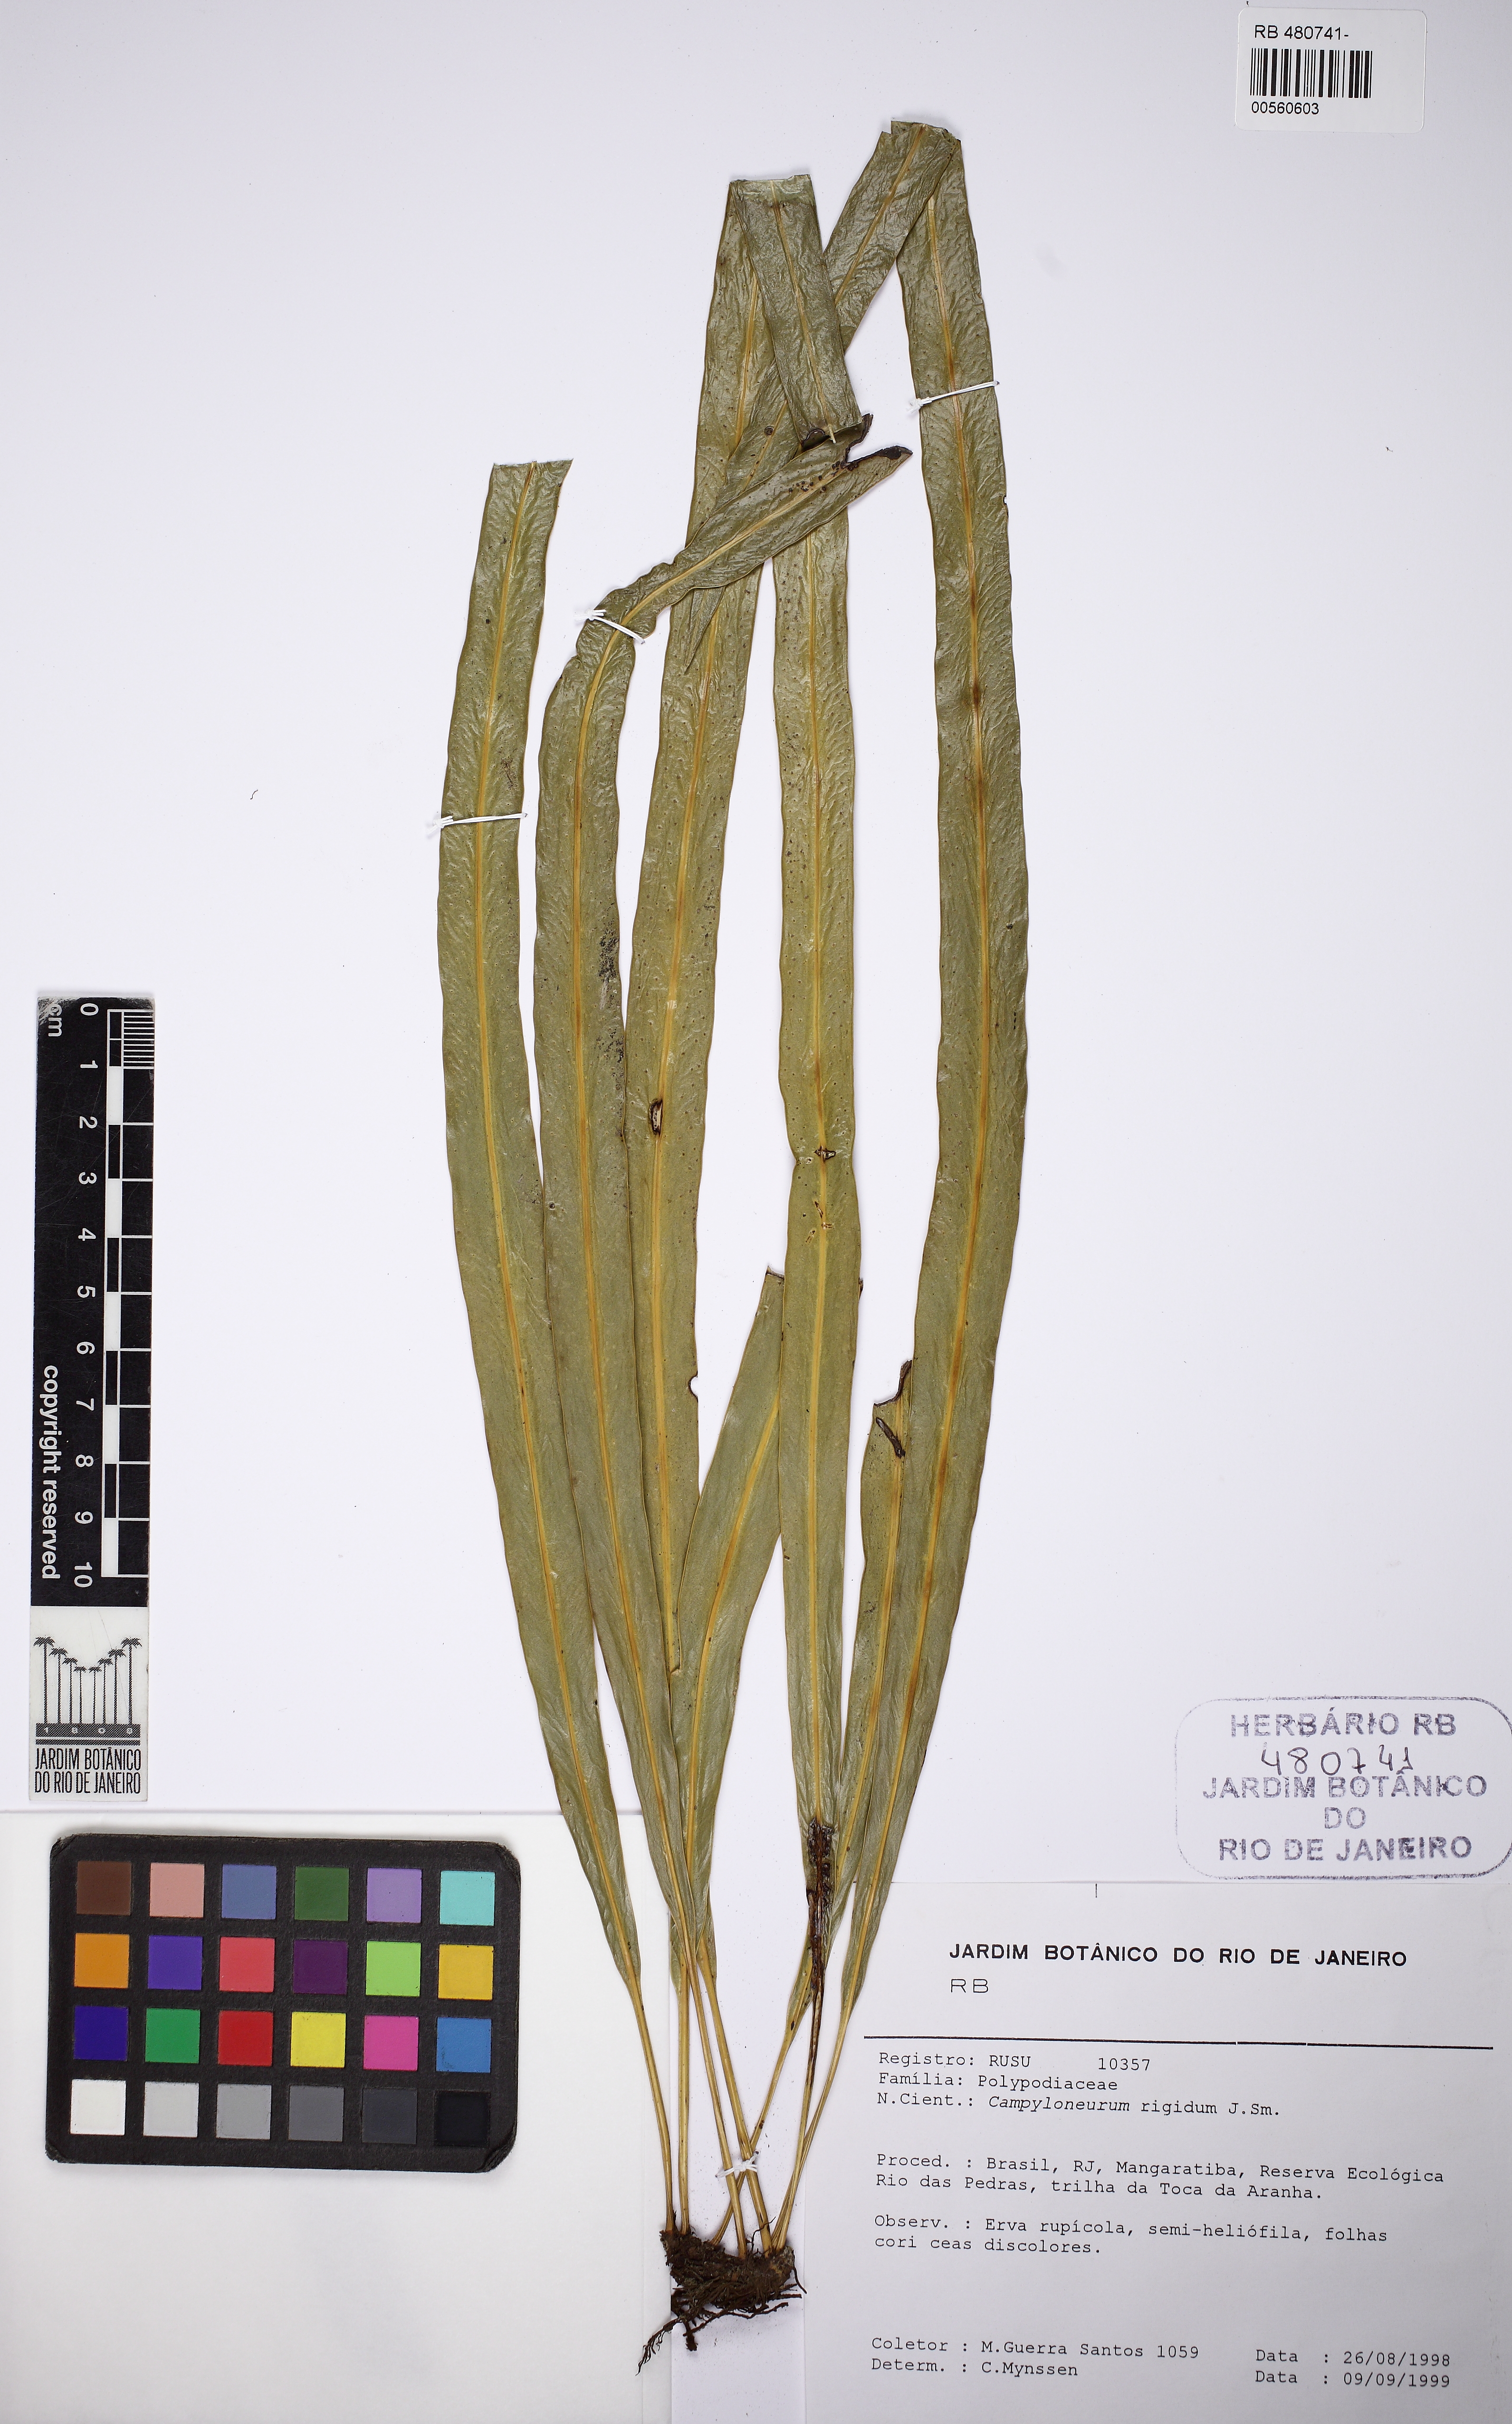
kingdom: Plantae
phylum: Tracheophyta
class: Polypodiopsida
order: Polypodiales
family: Polypodiaceae
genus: Campyloneurum
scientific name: Campyloneurum rigidum
